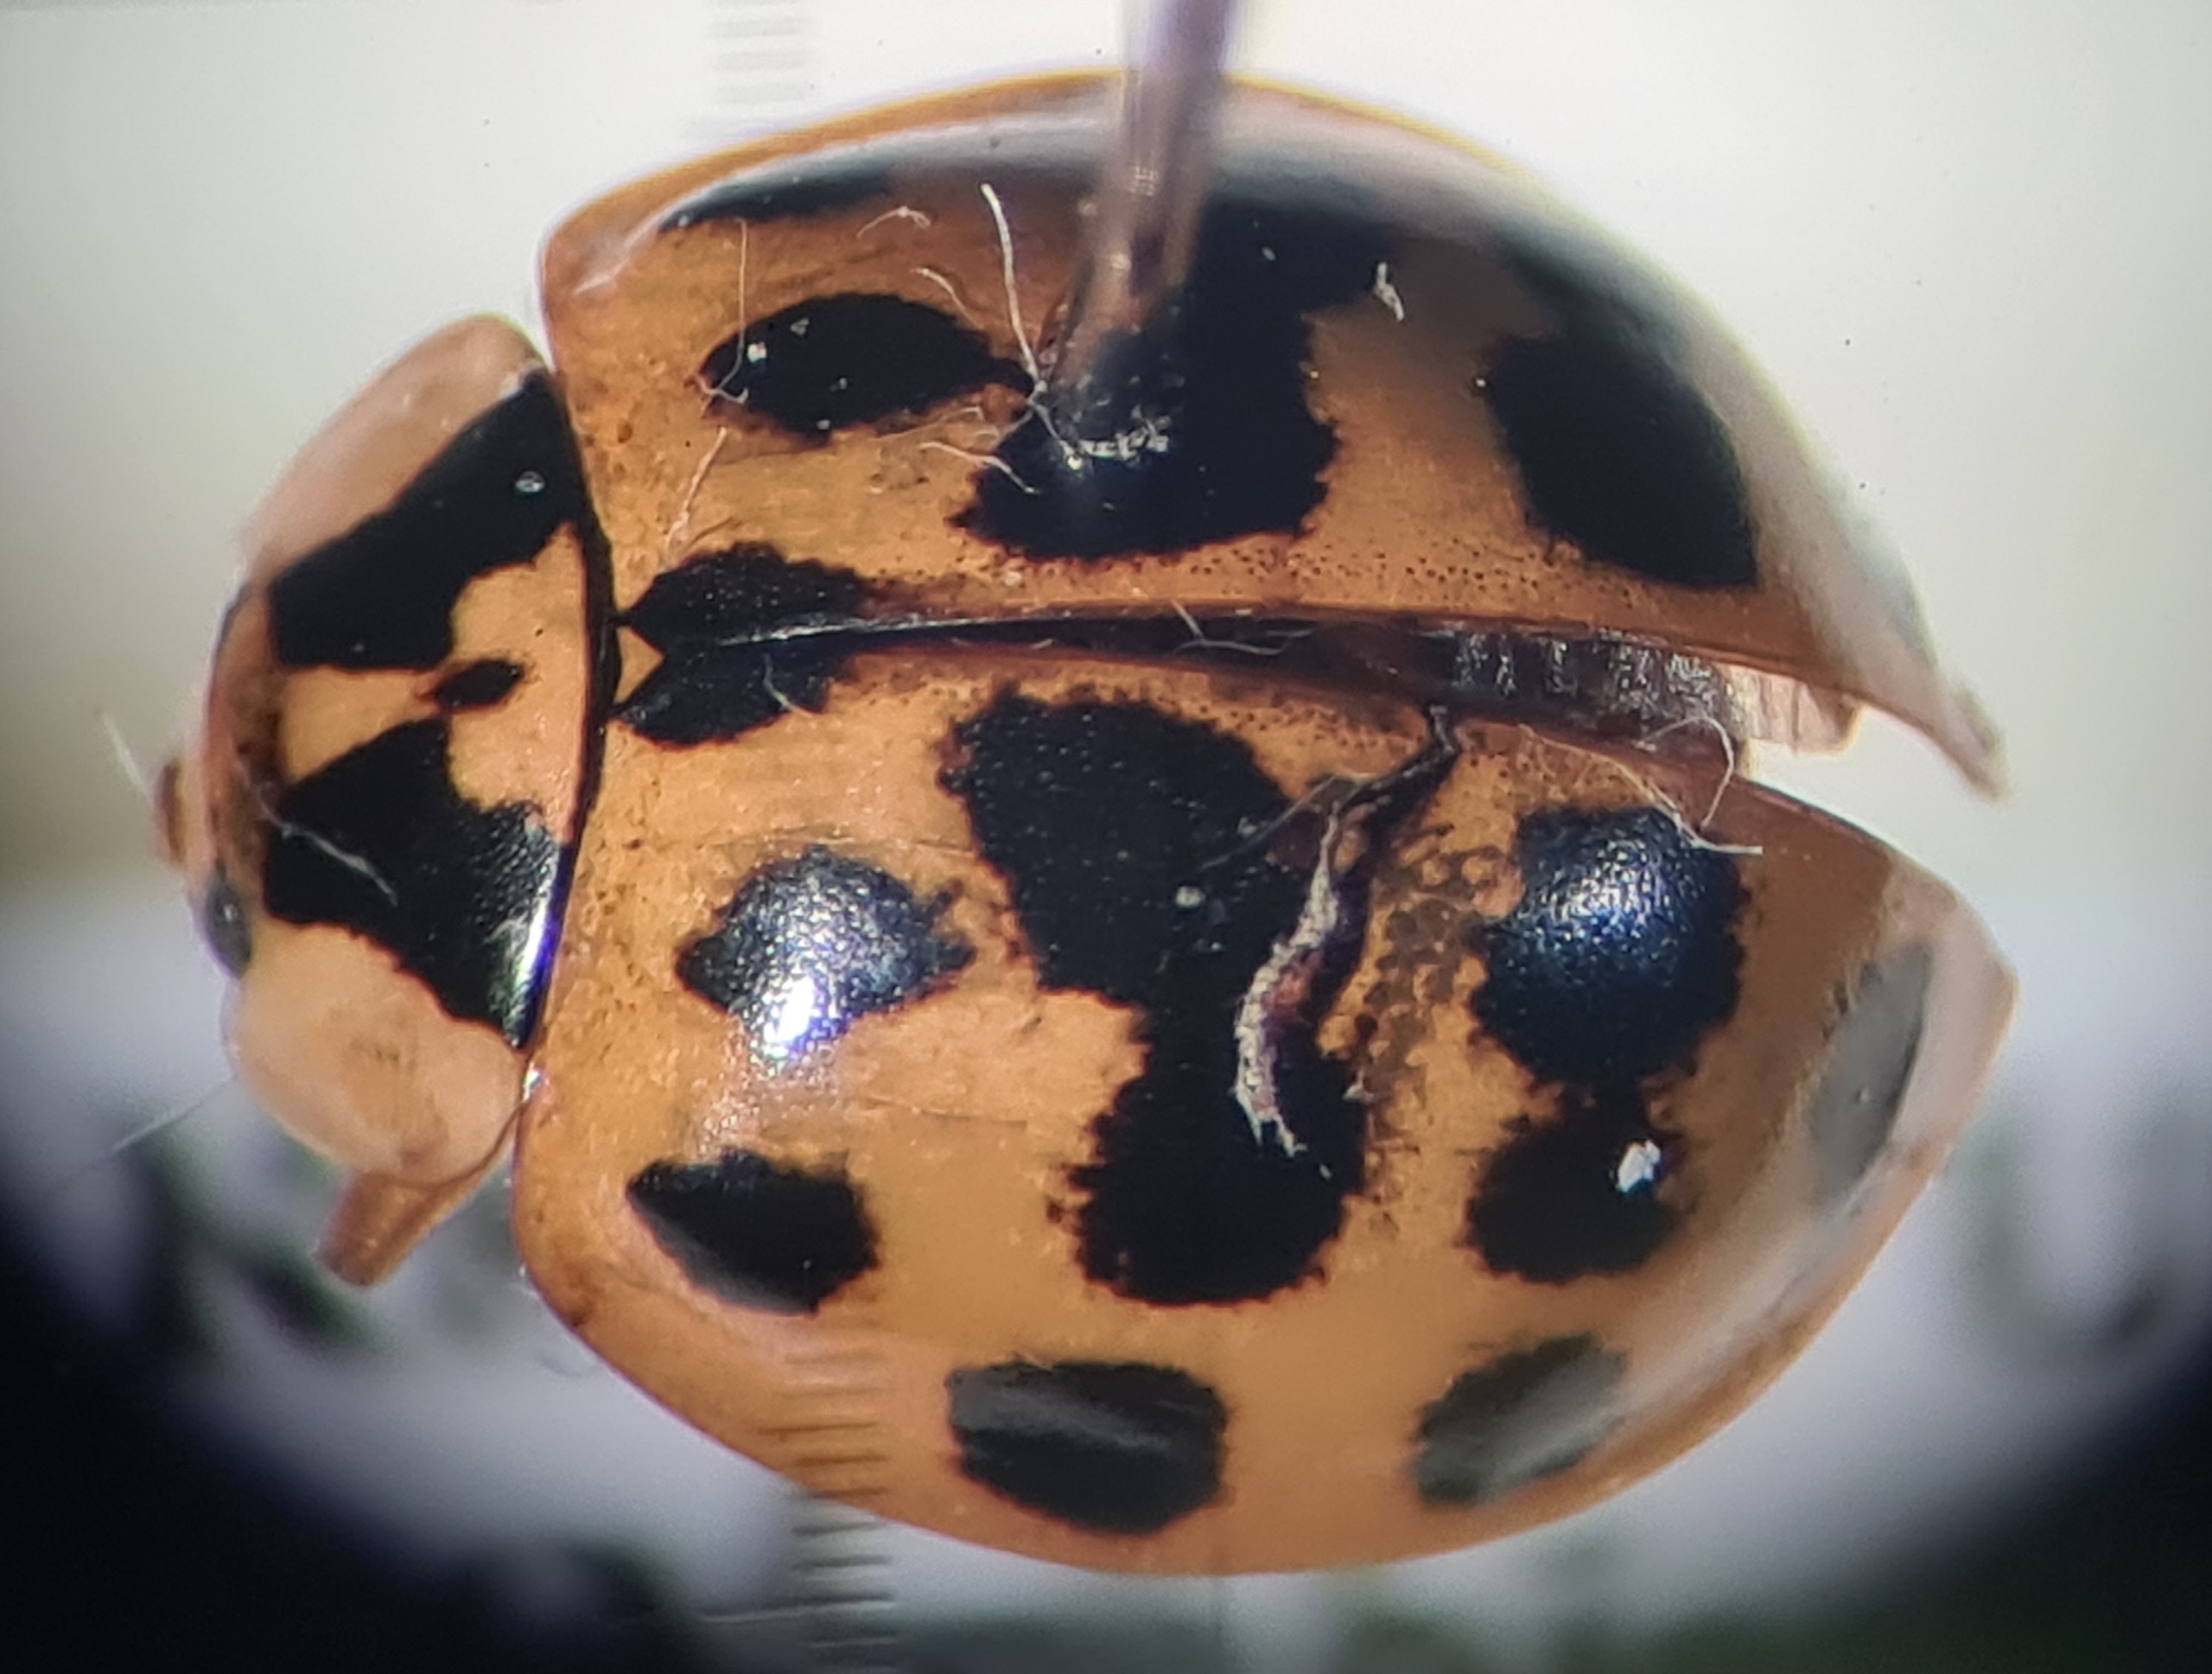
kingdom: Animalia
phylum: Arthropoda
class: Insecta
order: Coleoptera
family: Coccinellidae
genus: Harmonia
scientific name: Harmonia axyridis
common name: Harlekinmariehøne
